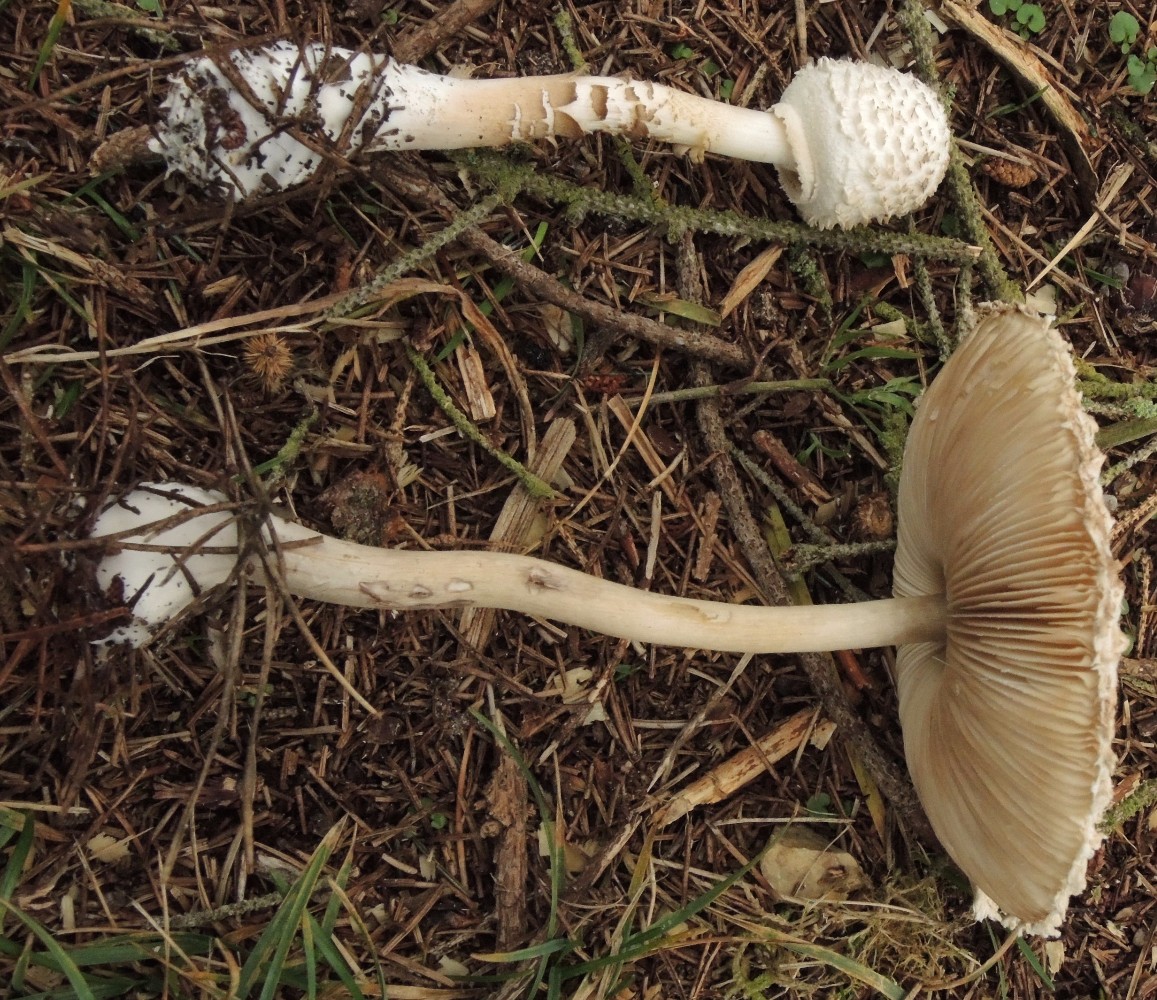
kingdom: Fungi
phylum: Basidiomycota
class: Agaricomycetes
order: Agaricales
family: Agaricaceae
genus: Leucoagaricus
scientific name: Leucoagaricus nympharum
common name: gran-silkehat
